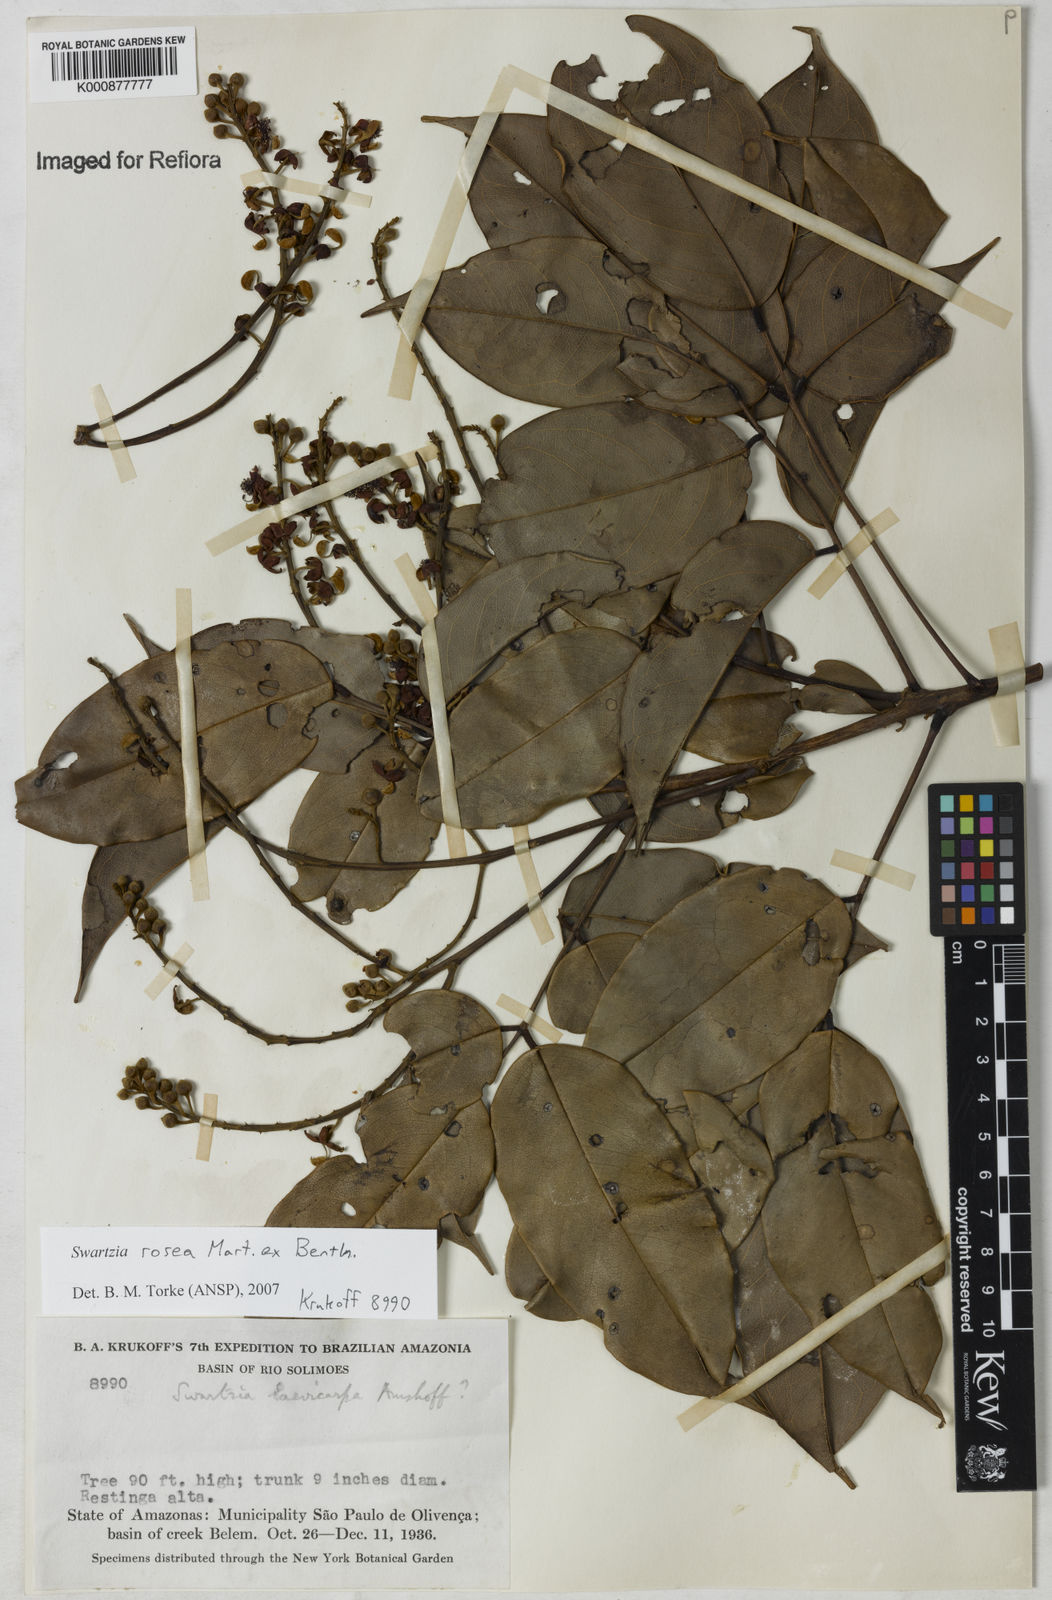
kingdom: Plantae
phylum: Tracheophyta
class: Magnoliopsida
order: Fabales
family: Fabaceae
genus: Swartzia
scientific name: Swartzia rosea
